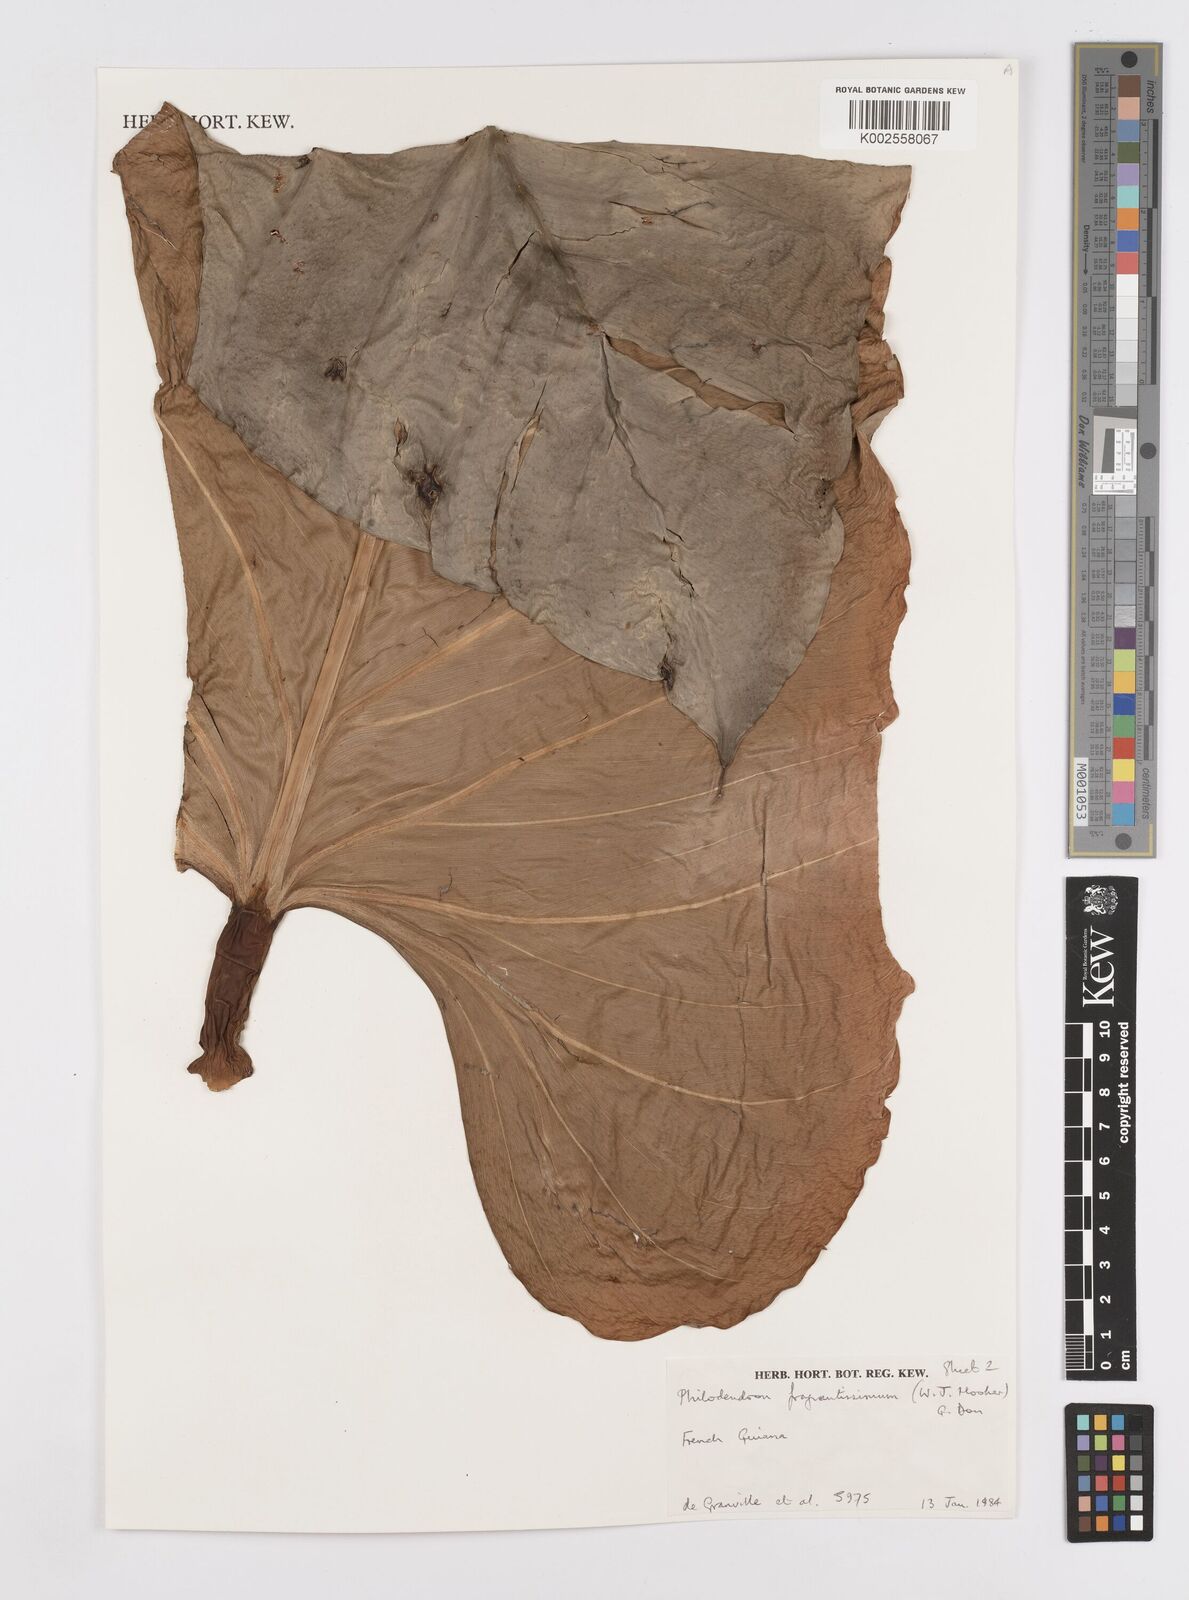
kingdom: Plantae
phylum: Tracheophyta
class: Liliopsida
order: Alismatales
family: Araceae
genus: Philodendron
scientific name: Philodendron fragrantissimum
